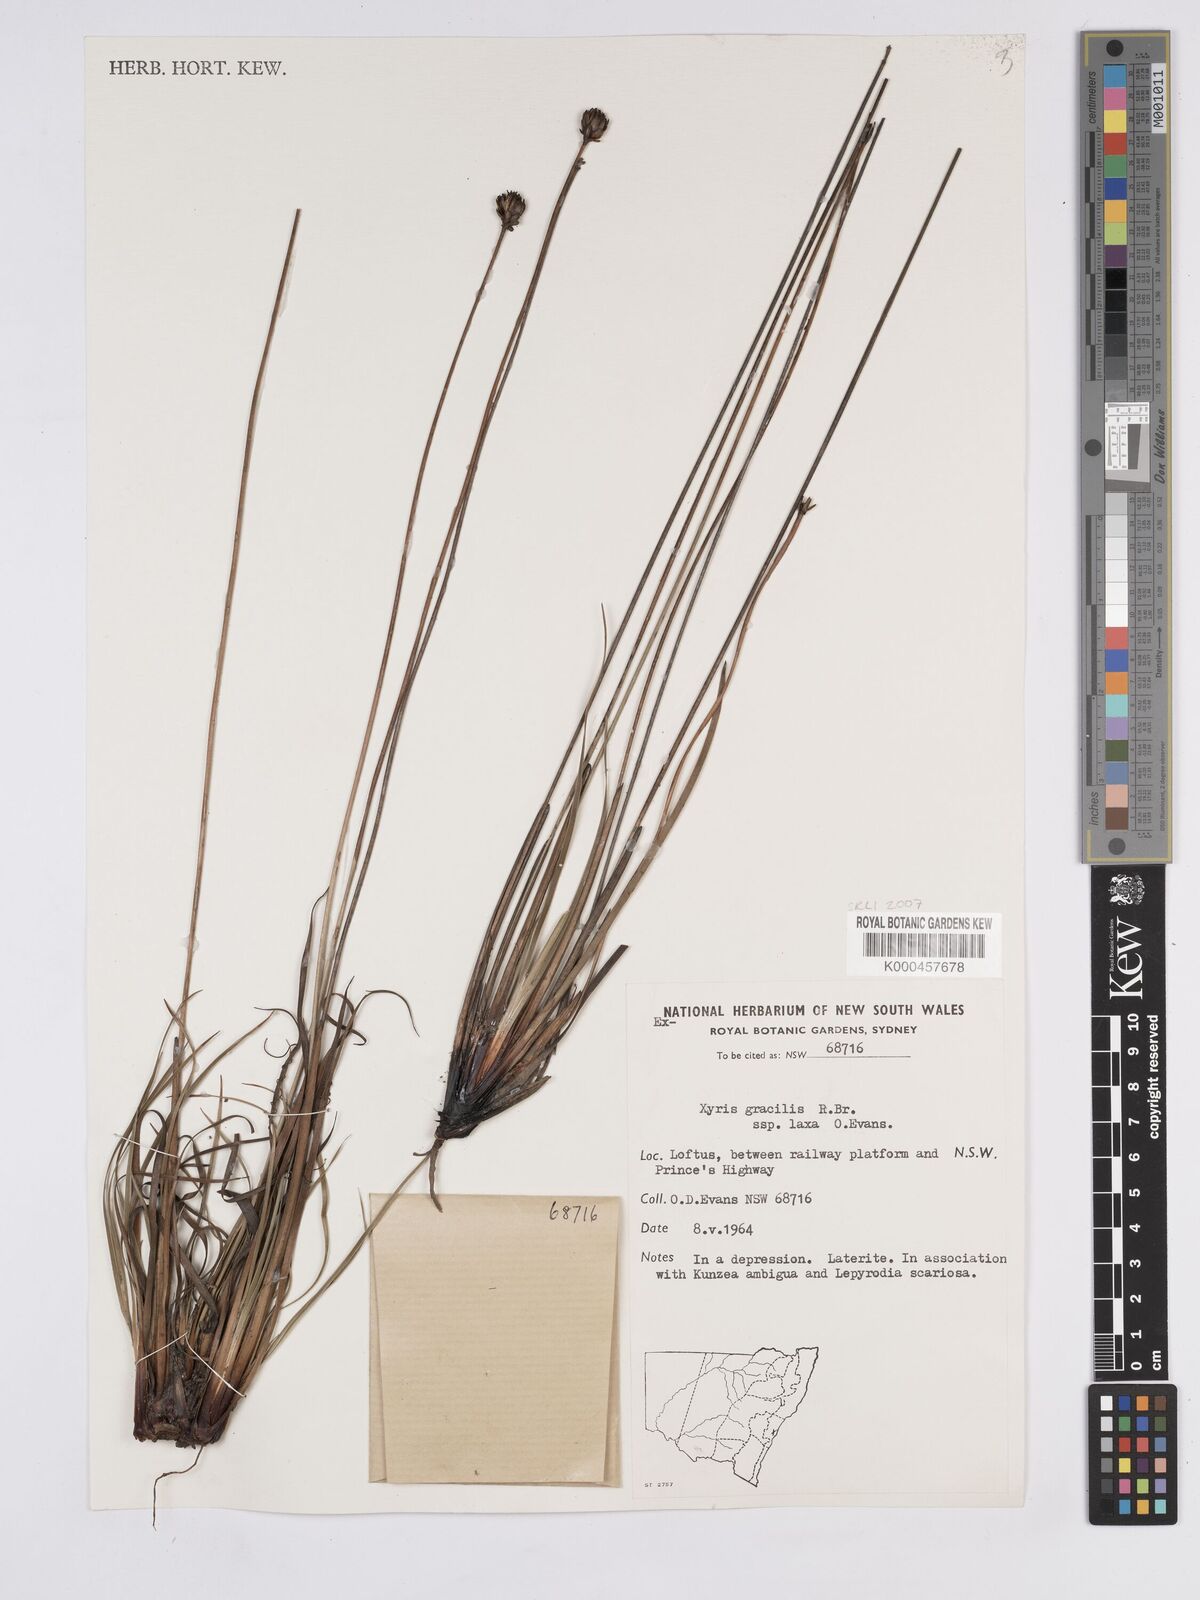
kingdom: Plantae
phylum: Tracheophyta
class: Liliopsida
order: Poales
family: Xyridaceae
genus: Xyris
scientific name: Xyris bracteata
